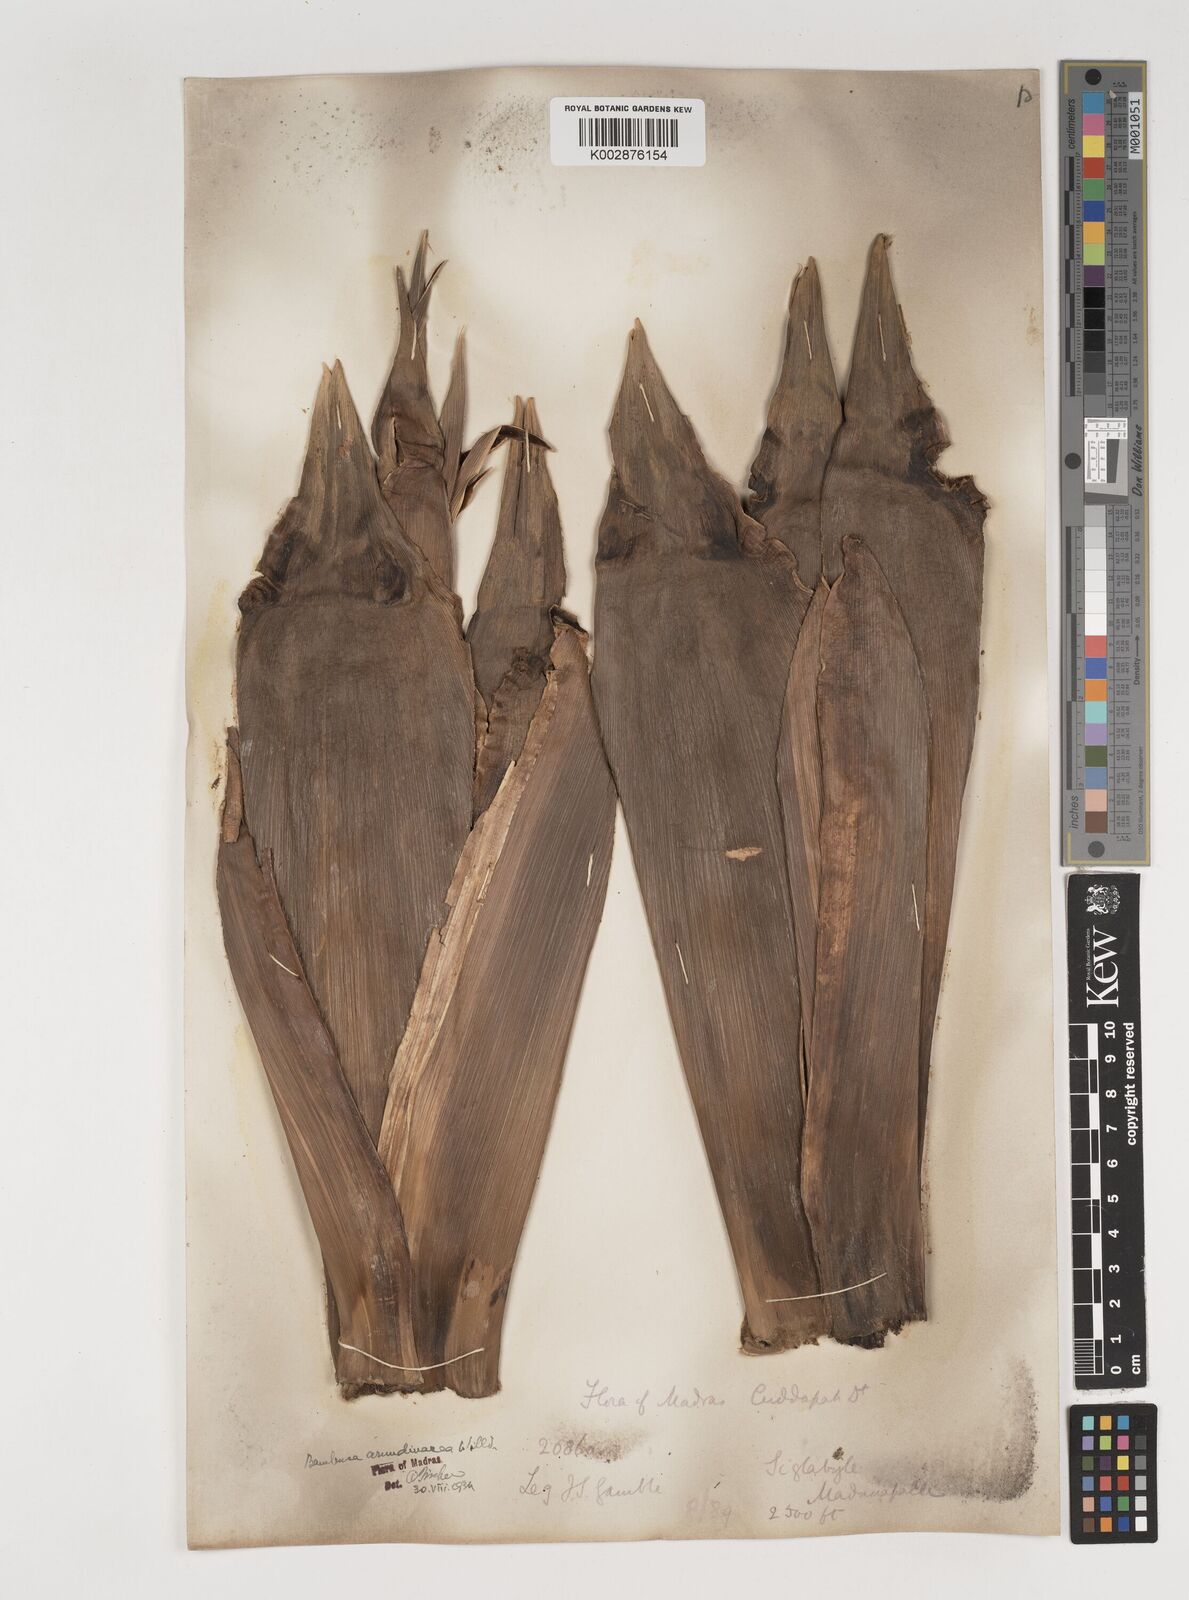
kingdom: Plantae
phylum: Tracheophyta
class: Liliopsida
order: Poales
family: Poaceae
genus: Bambusa
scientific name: Bambusa bambos
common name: Indian thorny bamboo
